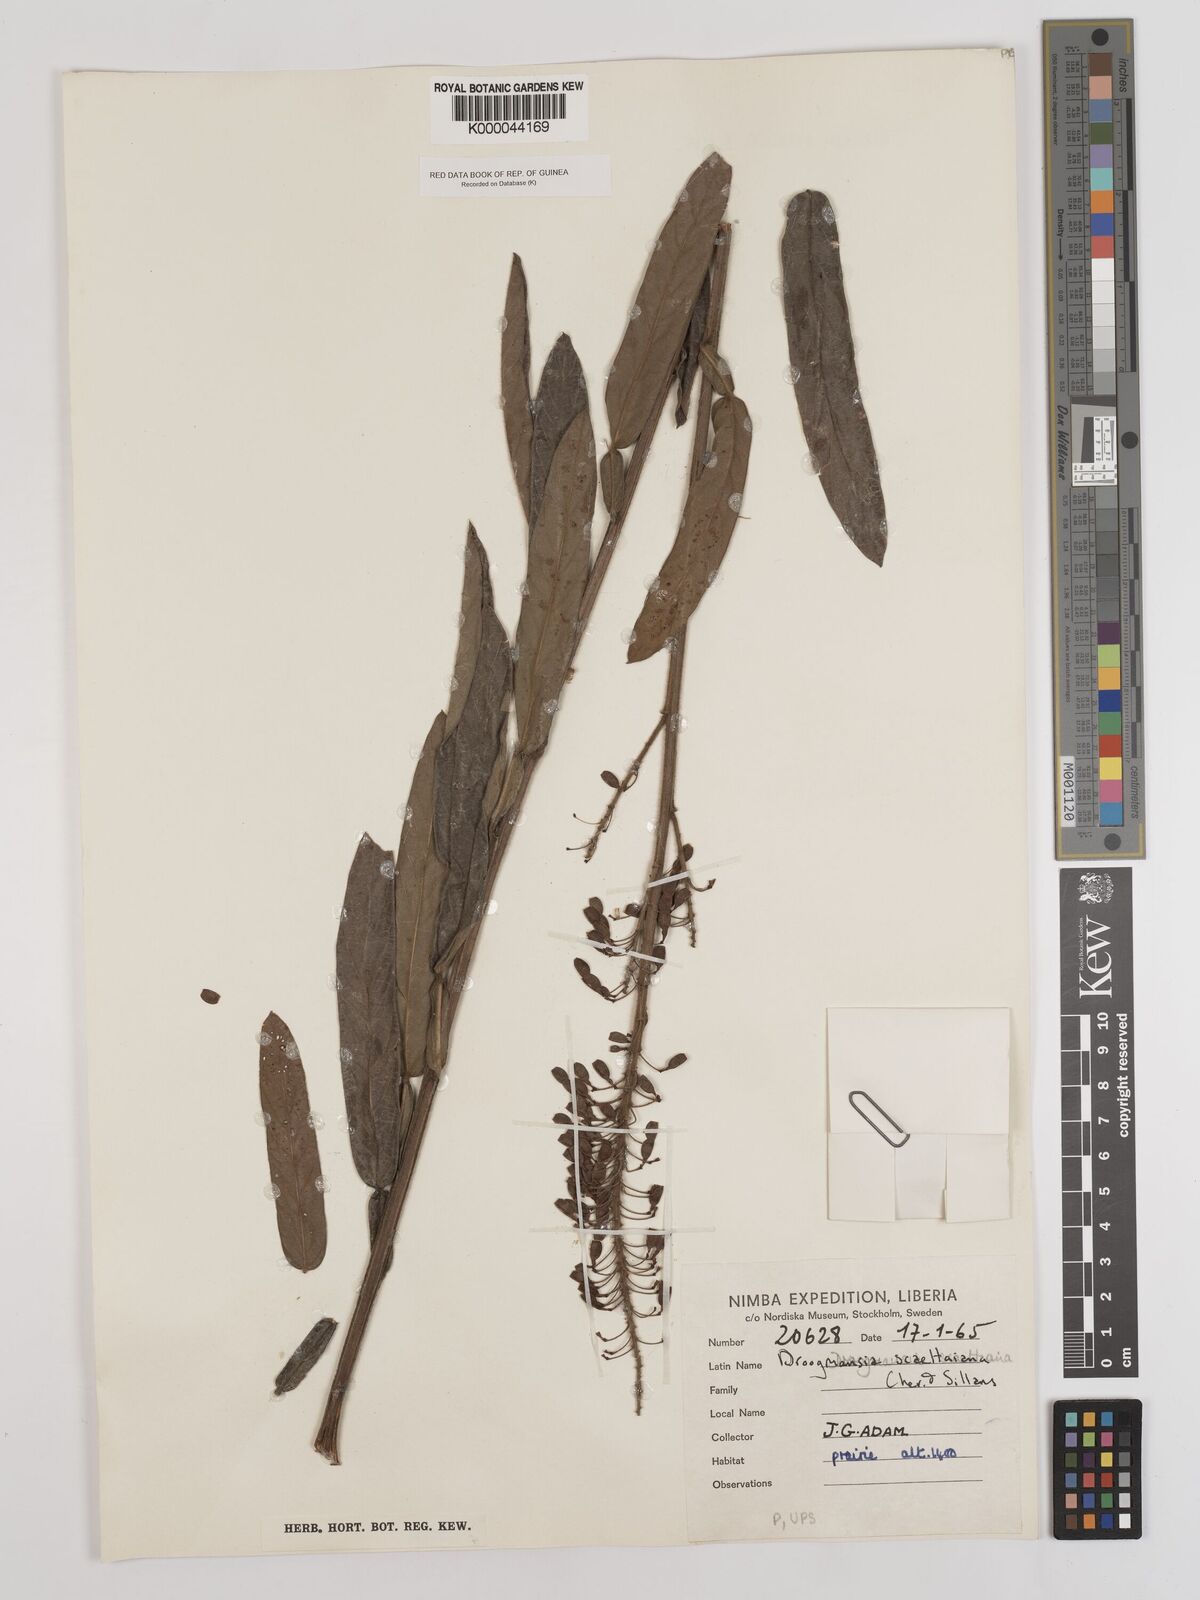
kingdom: Plantae
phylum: Tracheophyta
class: Magnoliopsida
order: Fabales
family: Fabaceae
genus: Droogmansia
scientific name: Droogmansia scaettaiana
